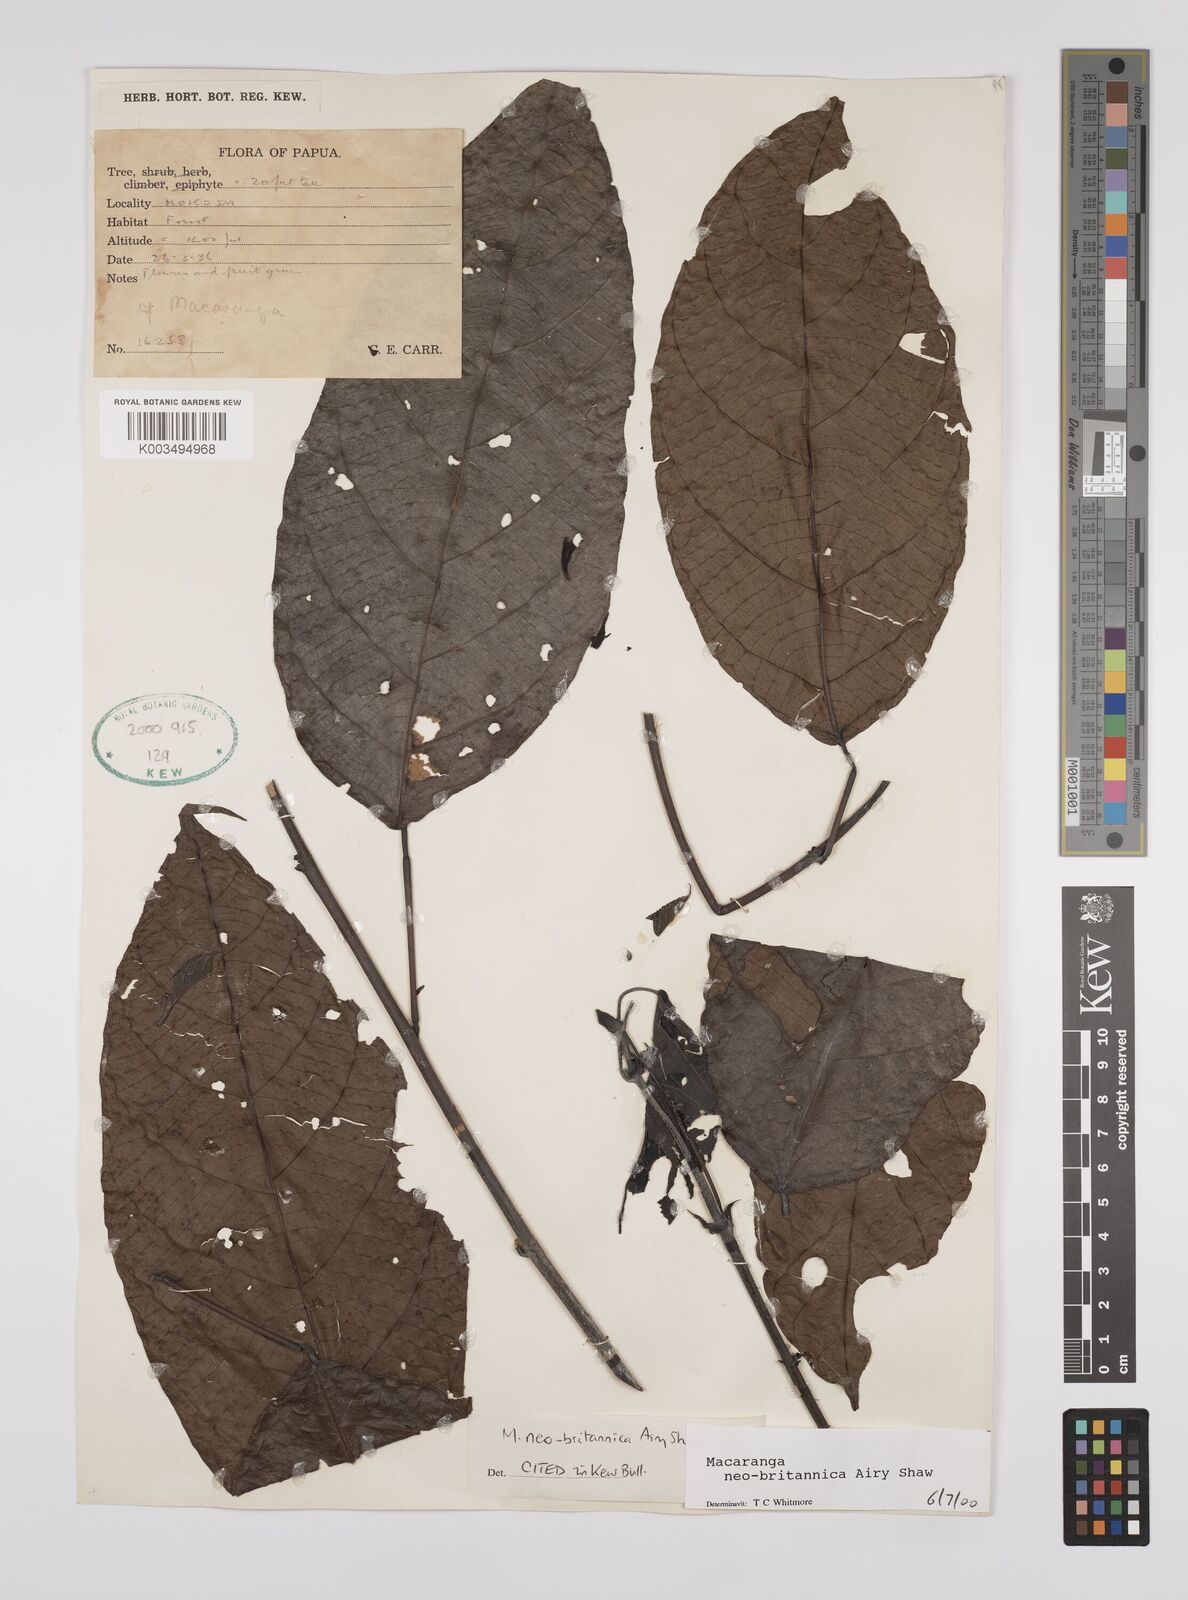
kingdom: Plantae
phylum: Tracheophyta
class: Magnoliopsida
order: Malpighiales
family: Euphorbiaceae
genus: Macaranga
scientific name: Macaranga neobritannica
